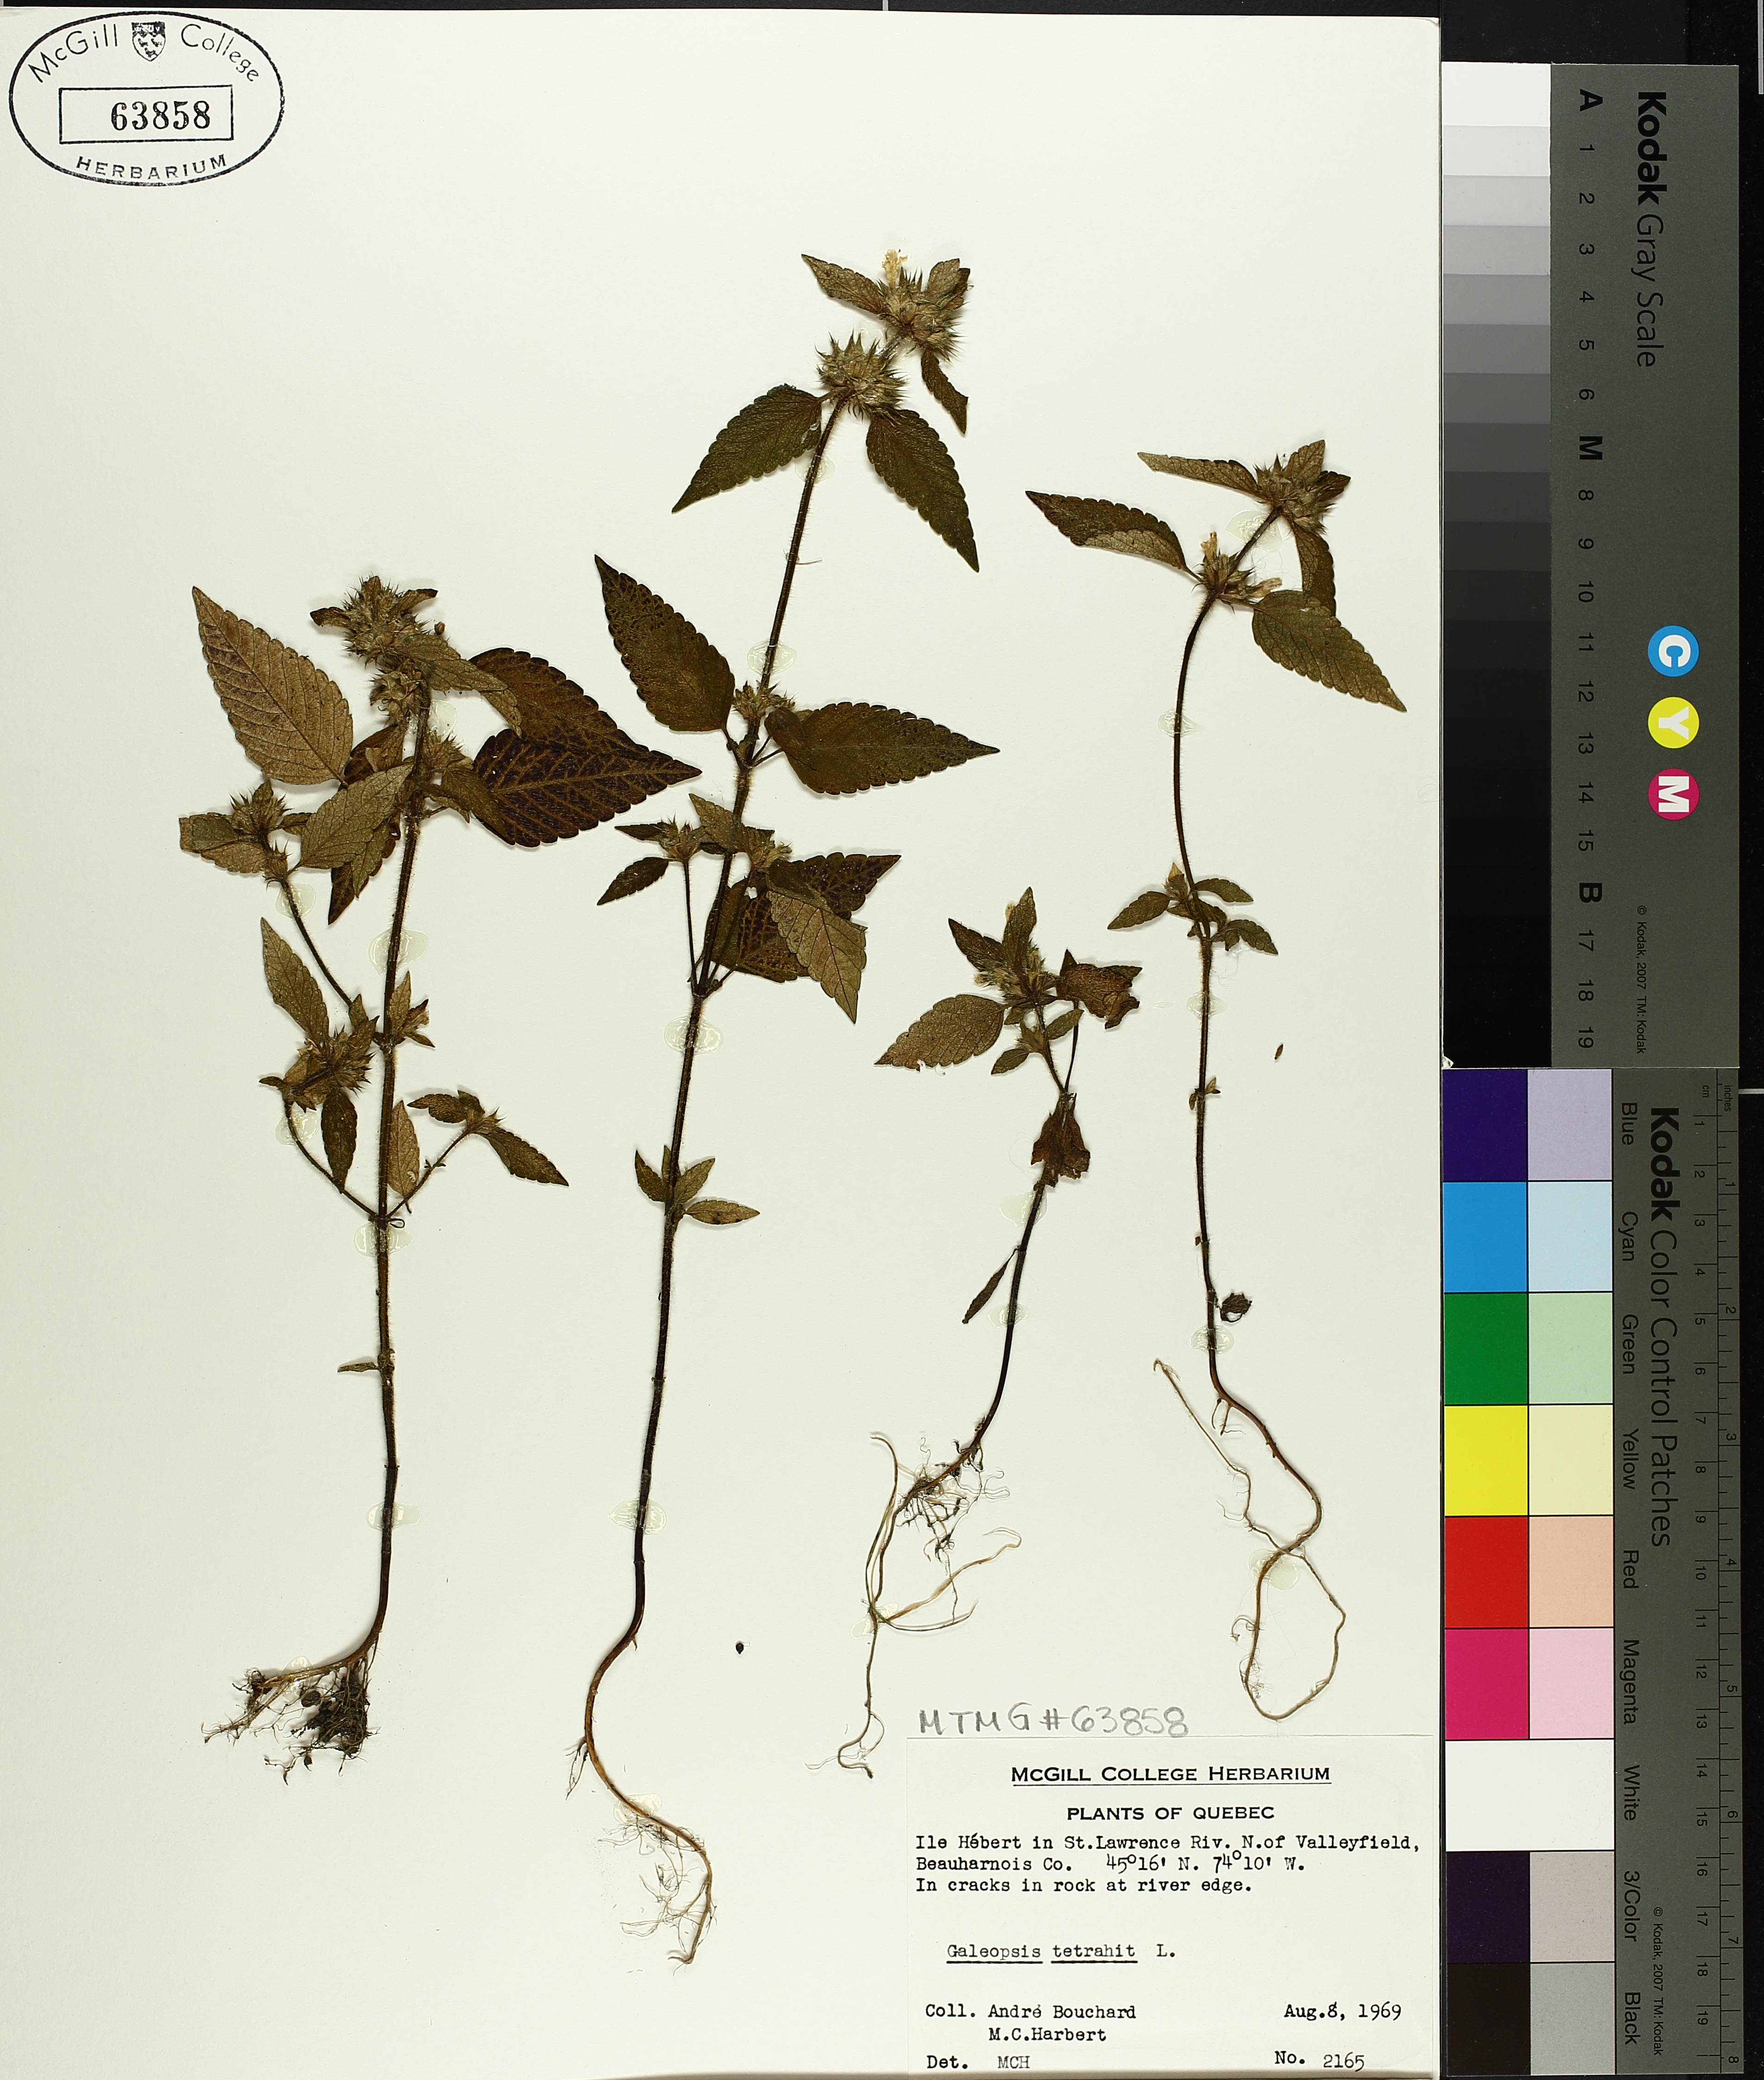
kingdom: Plantae
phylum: Tracheophyta
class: Magnoliopsida
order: Lamiales
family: Lamiaceae
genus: Galeopsis
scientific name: Galeopsis tetrahit
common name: Common hemp-nettle
